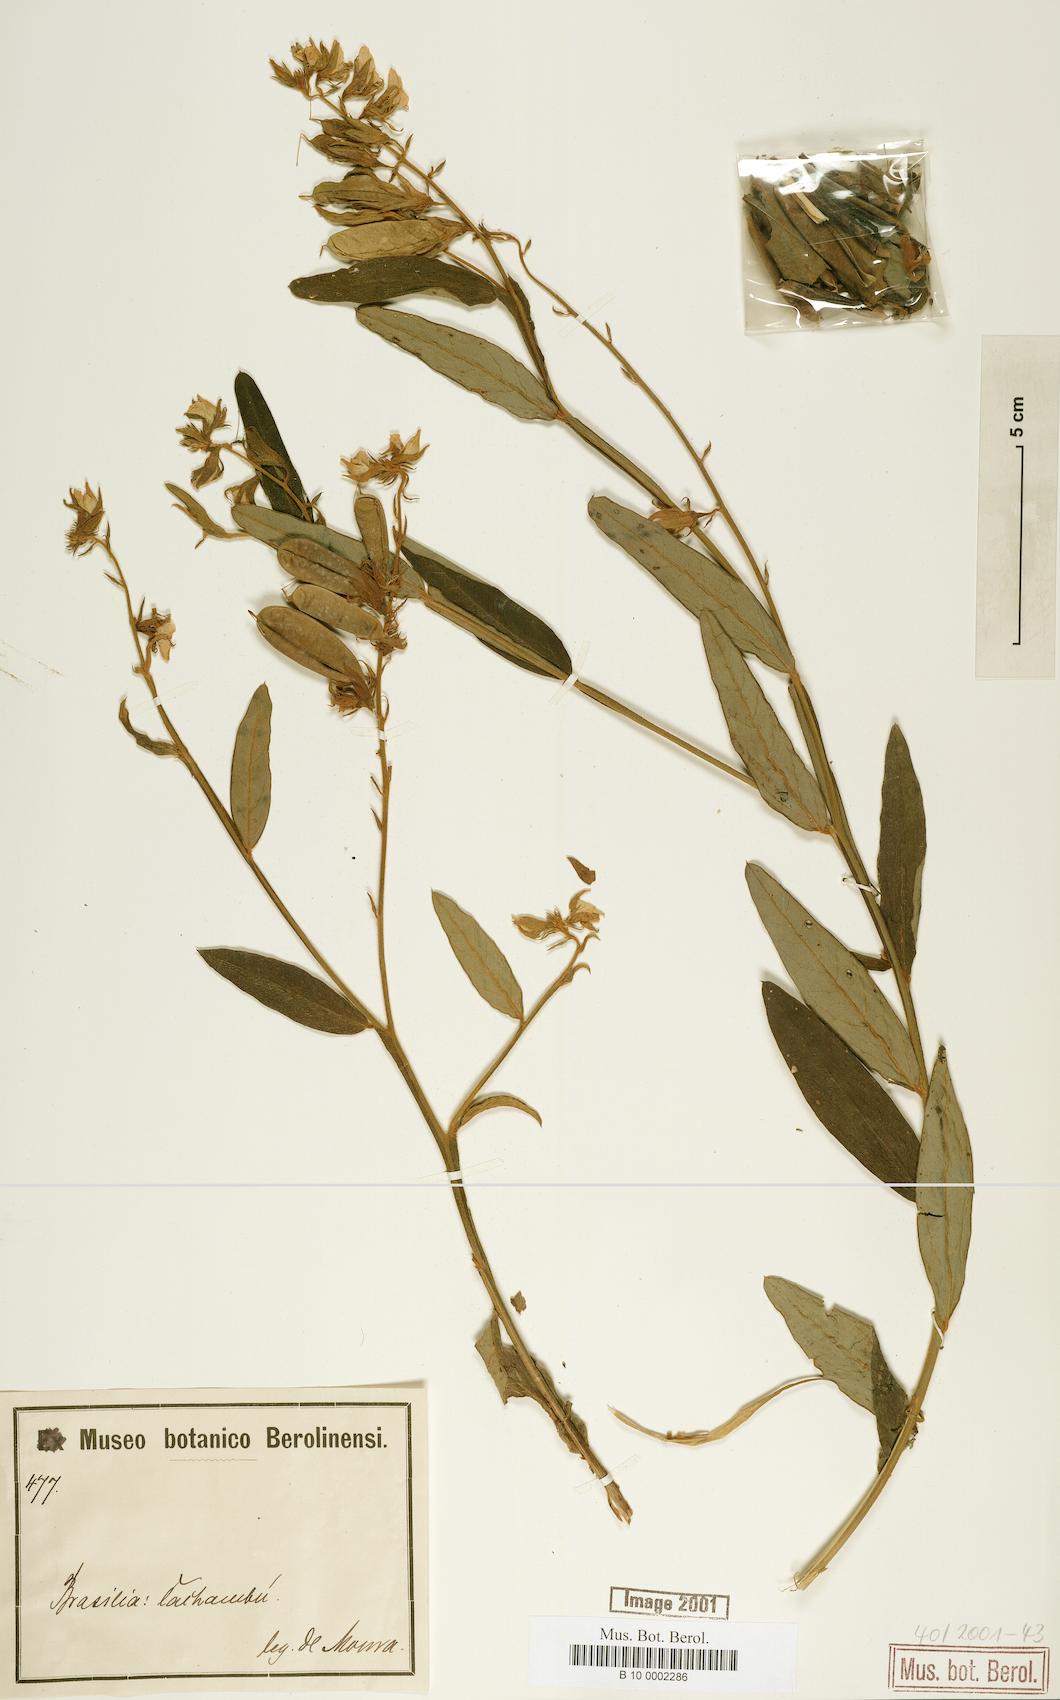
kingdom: Plantae
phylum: Tracheophyta
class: Magnoliopsida
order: Fabales
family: Fabaceae
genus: Crotalaria
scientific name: Crotalaria breviflora
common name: Short-flower crotalaria
